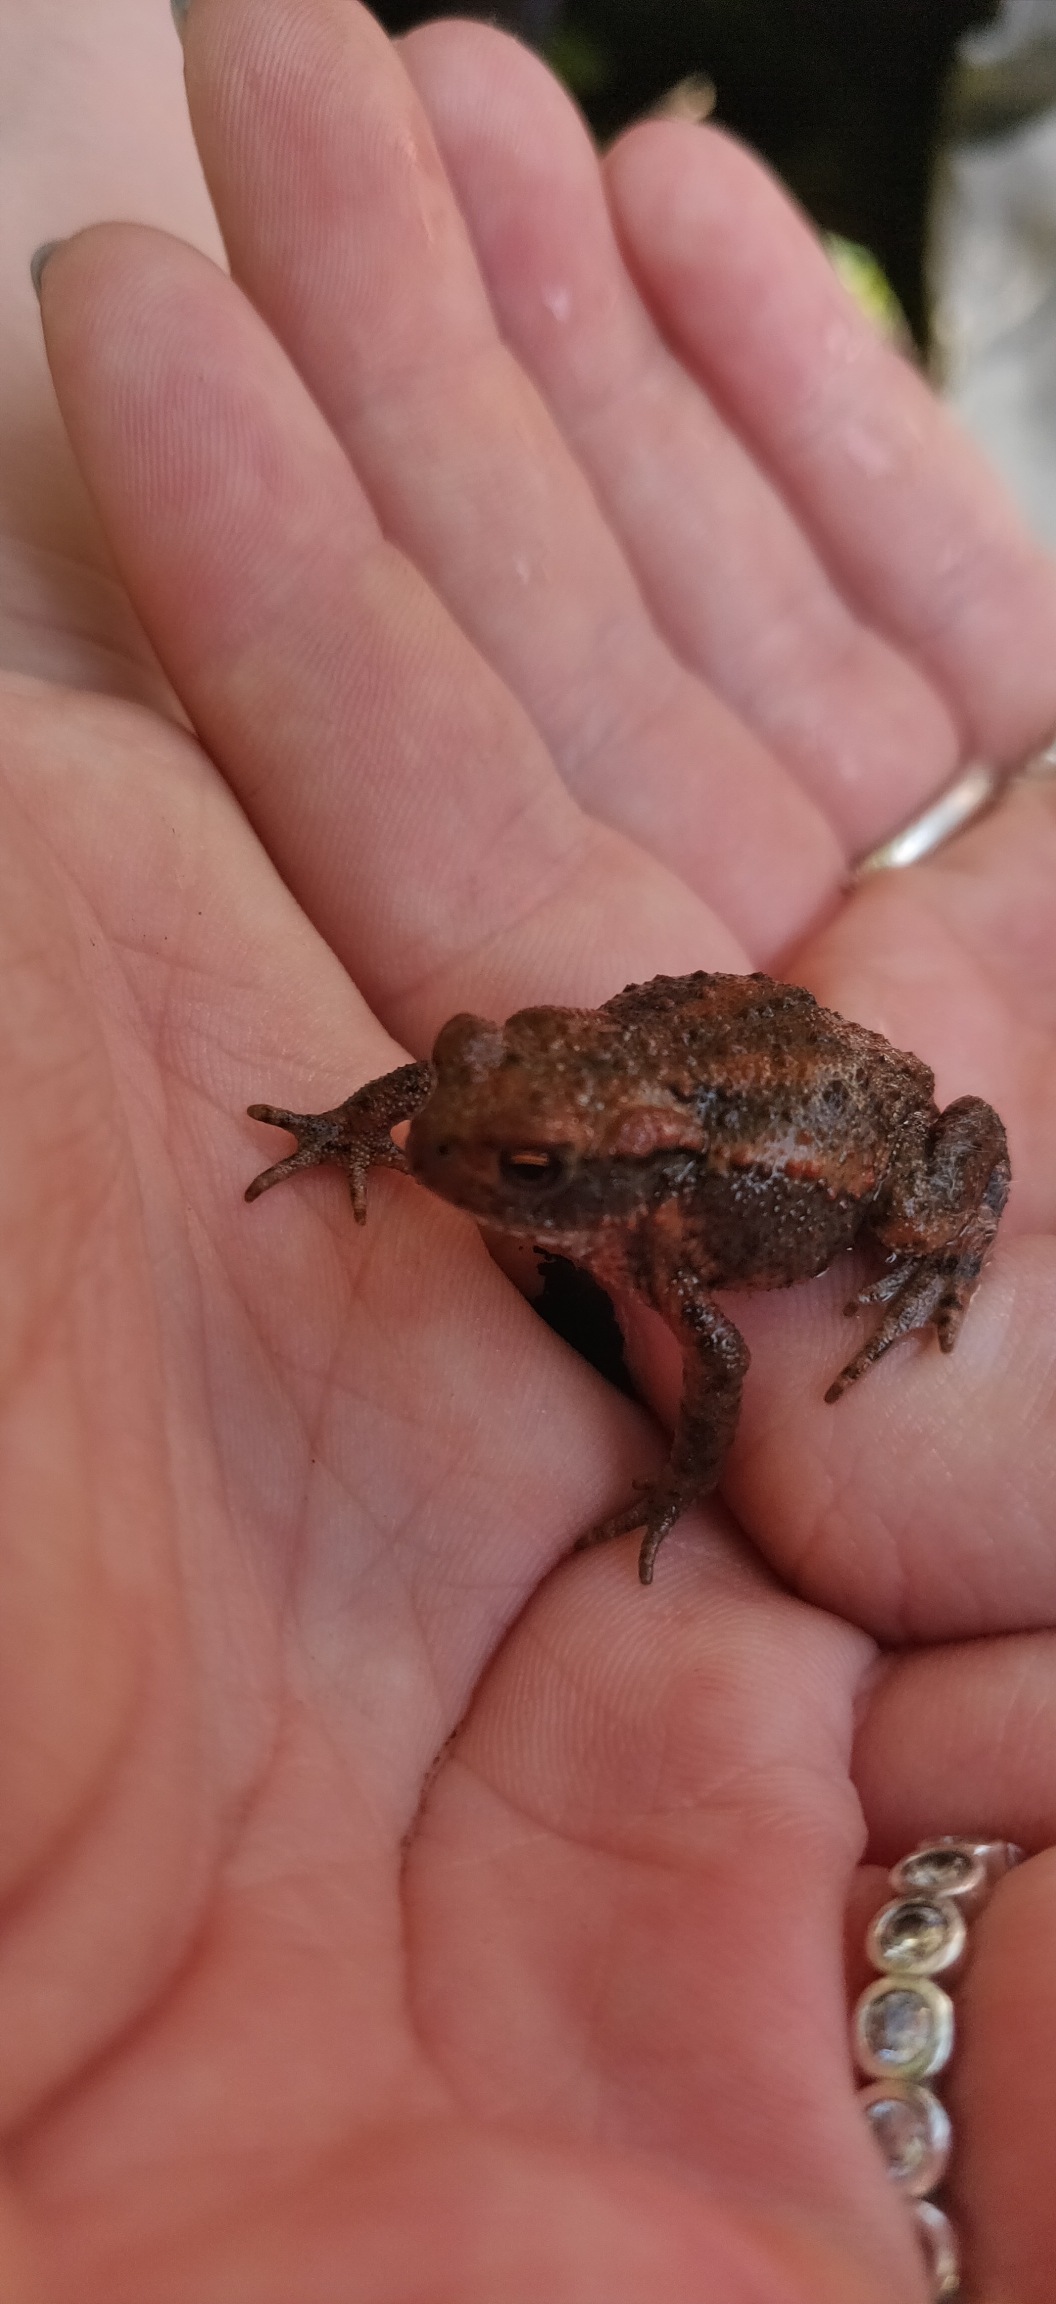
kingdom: Animalia
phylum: Chordata
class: Amphibia
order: Anura
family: Bufonidae
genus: Bufo
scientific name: Bufo bufo
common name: Skrubtudse
